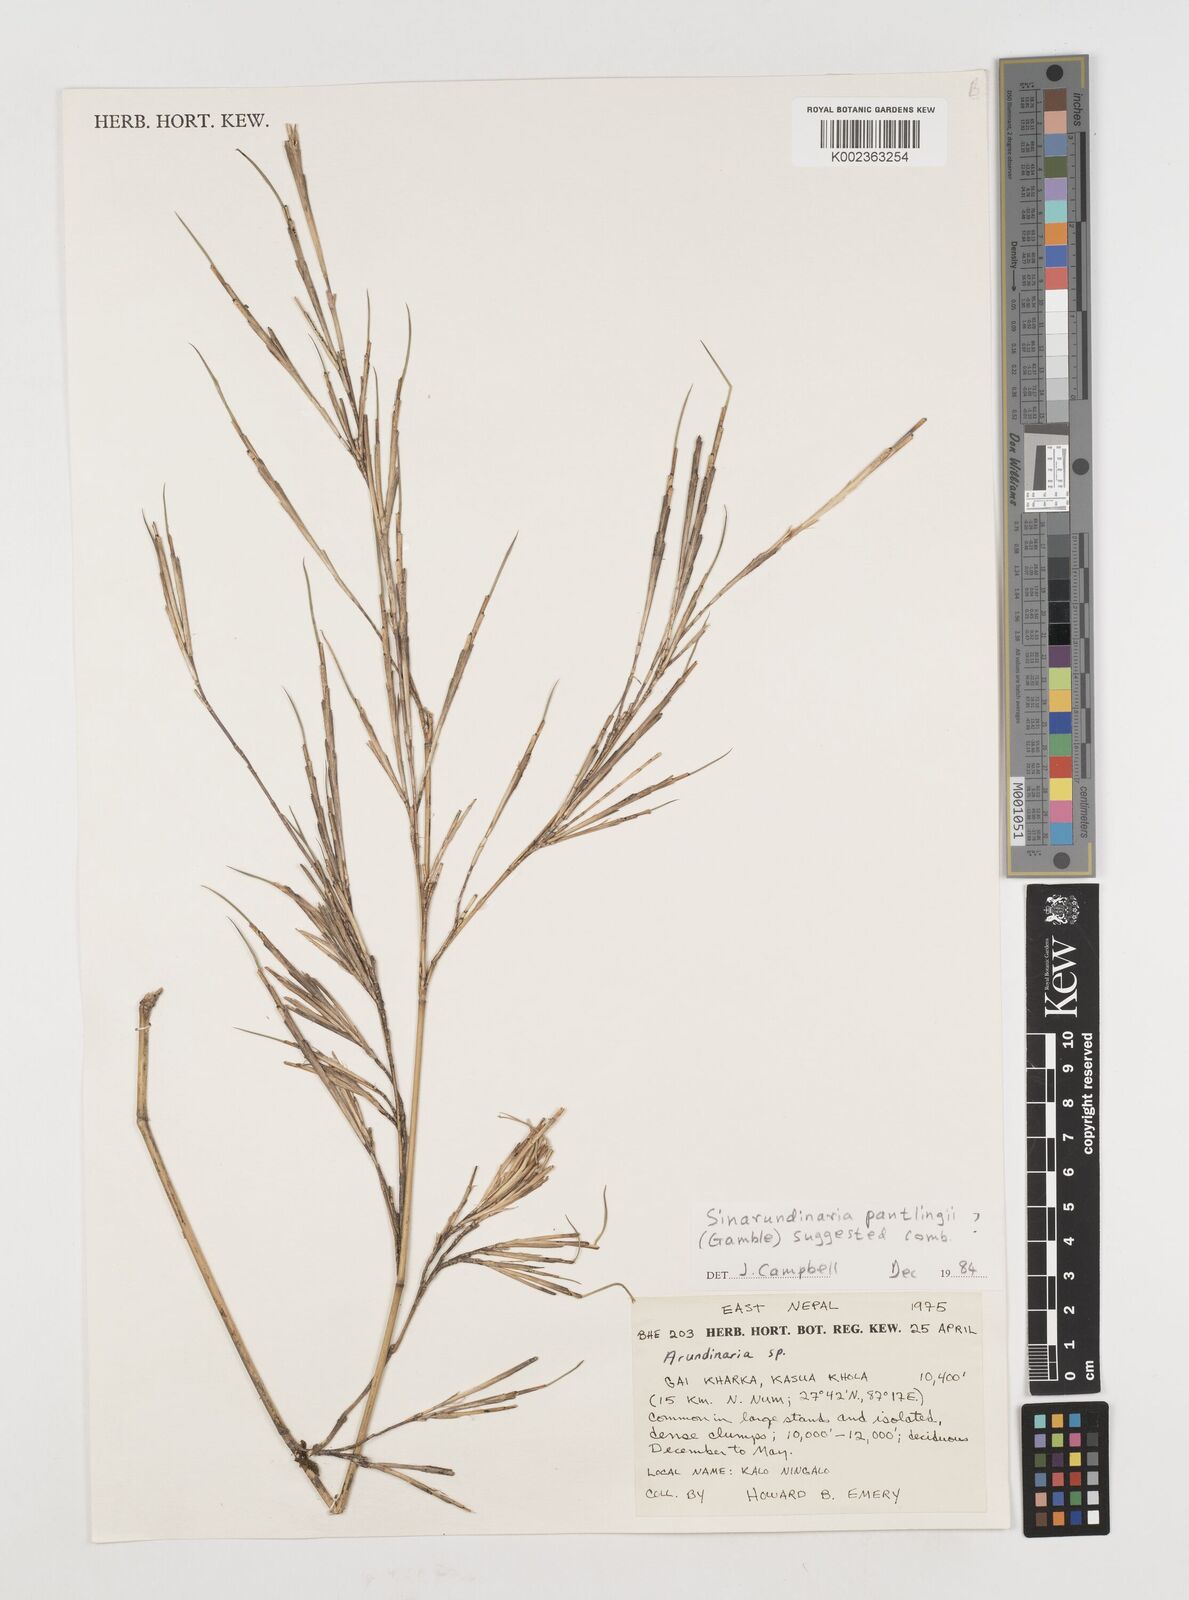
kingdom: Plantae
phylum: Tracheophyta
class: Liliopsida
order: Poales
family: Poaceae
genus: Fargesia
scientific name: Fargesia
